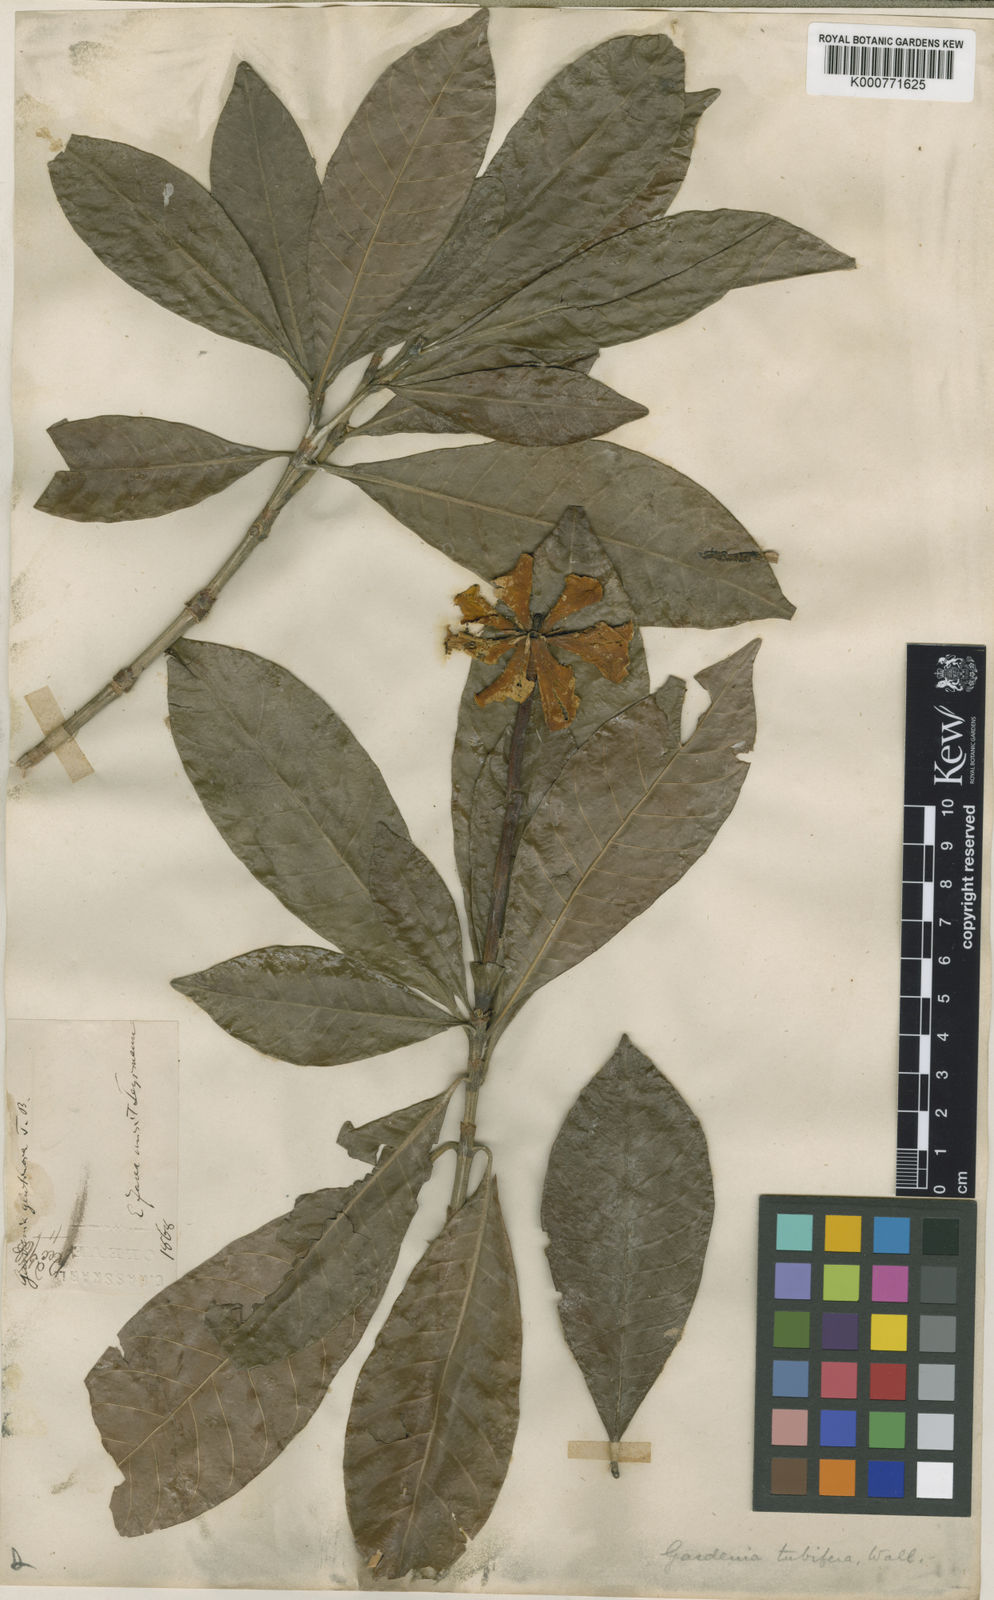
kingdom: Plantae
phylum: Tracheophyta
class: Magnoliopsida
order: Gentianales
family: Rubiaceae
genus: Gardenia
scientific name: Gardenia
